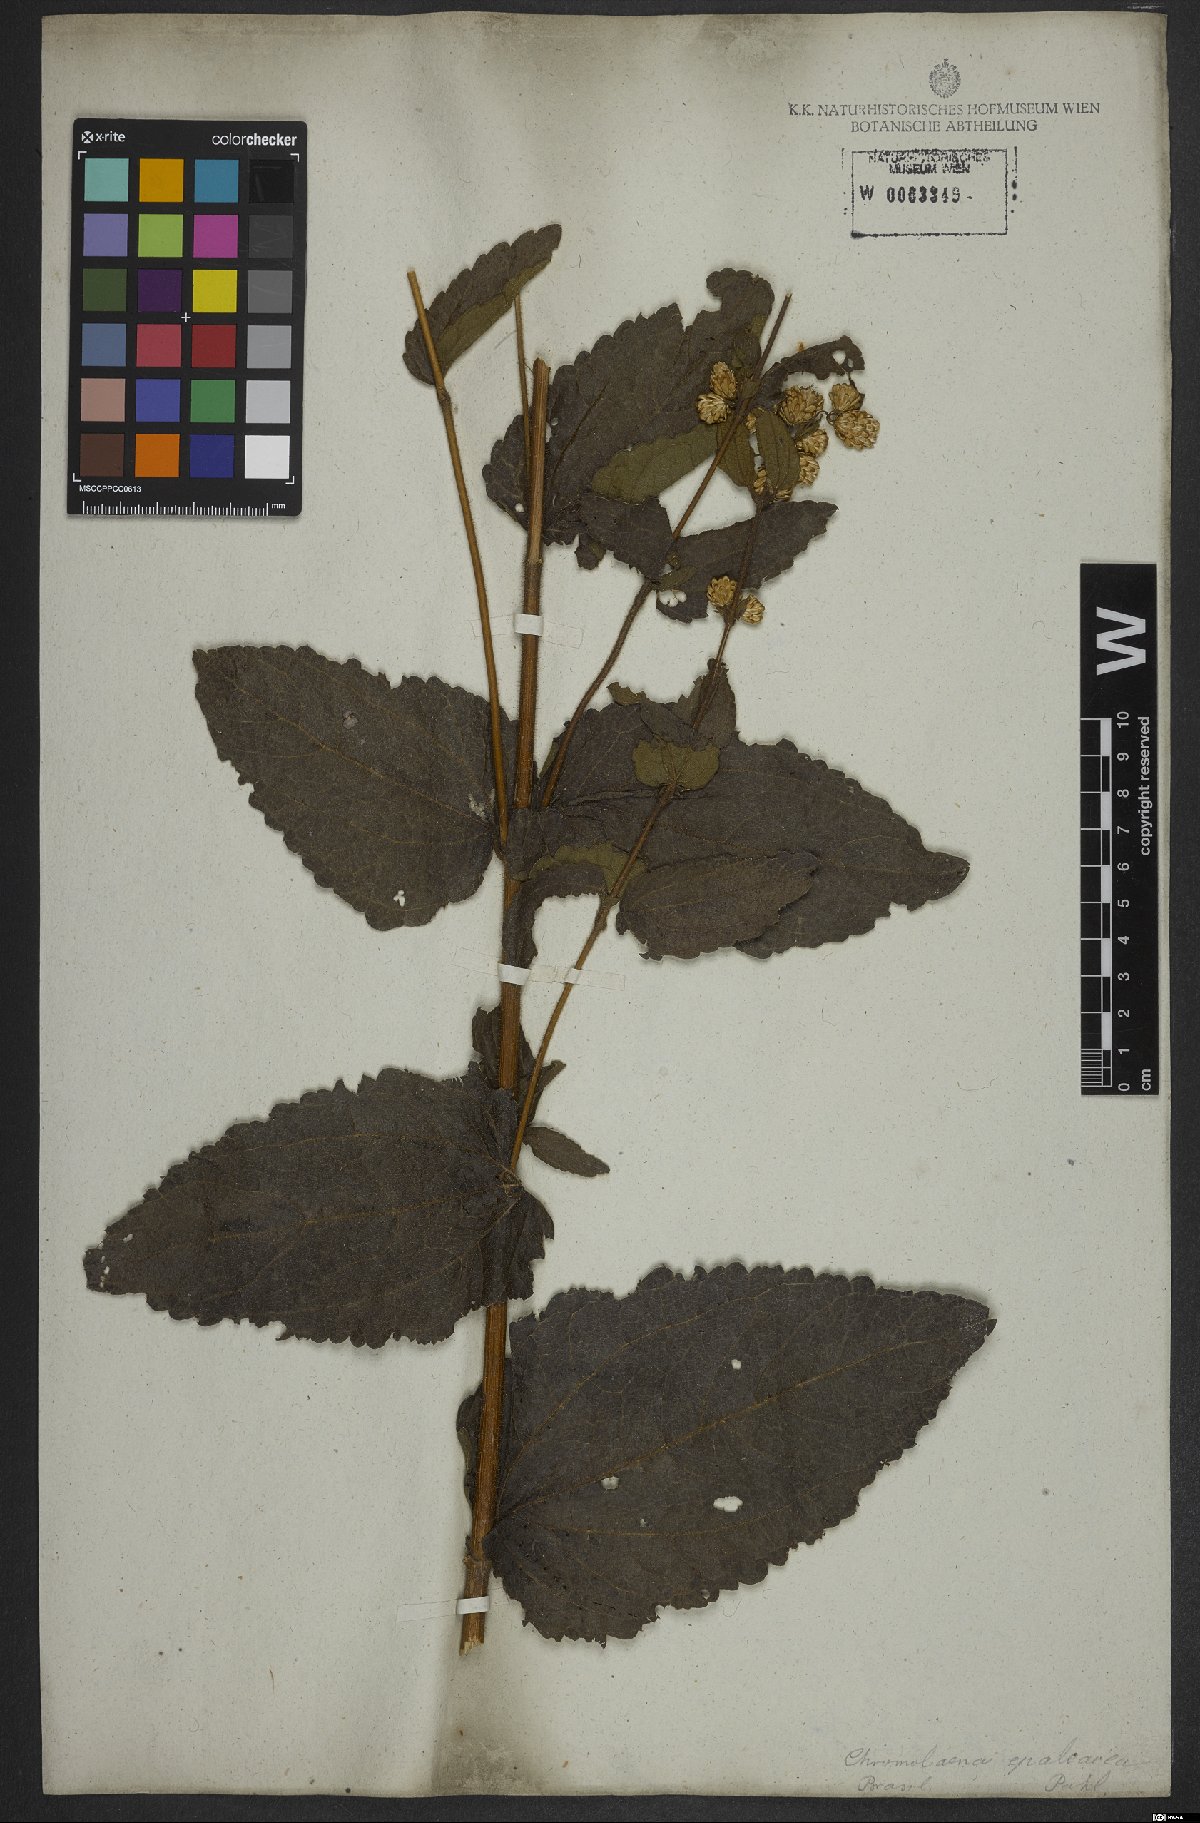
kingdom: Plantae
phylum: Tracheophyta
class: Magnoliopsida
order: Asterales
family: Asteraceae
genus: Chromolaena
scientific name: Chromolaena epaleacea
